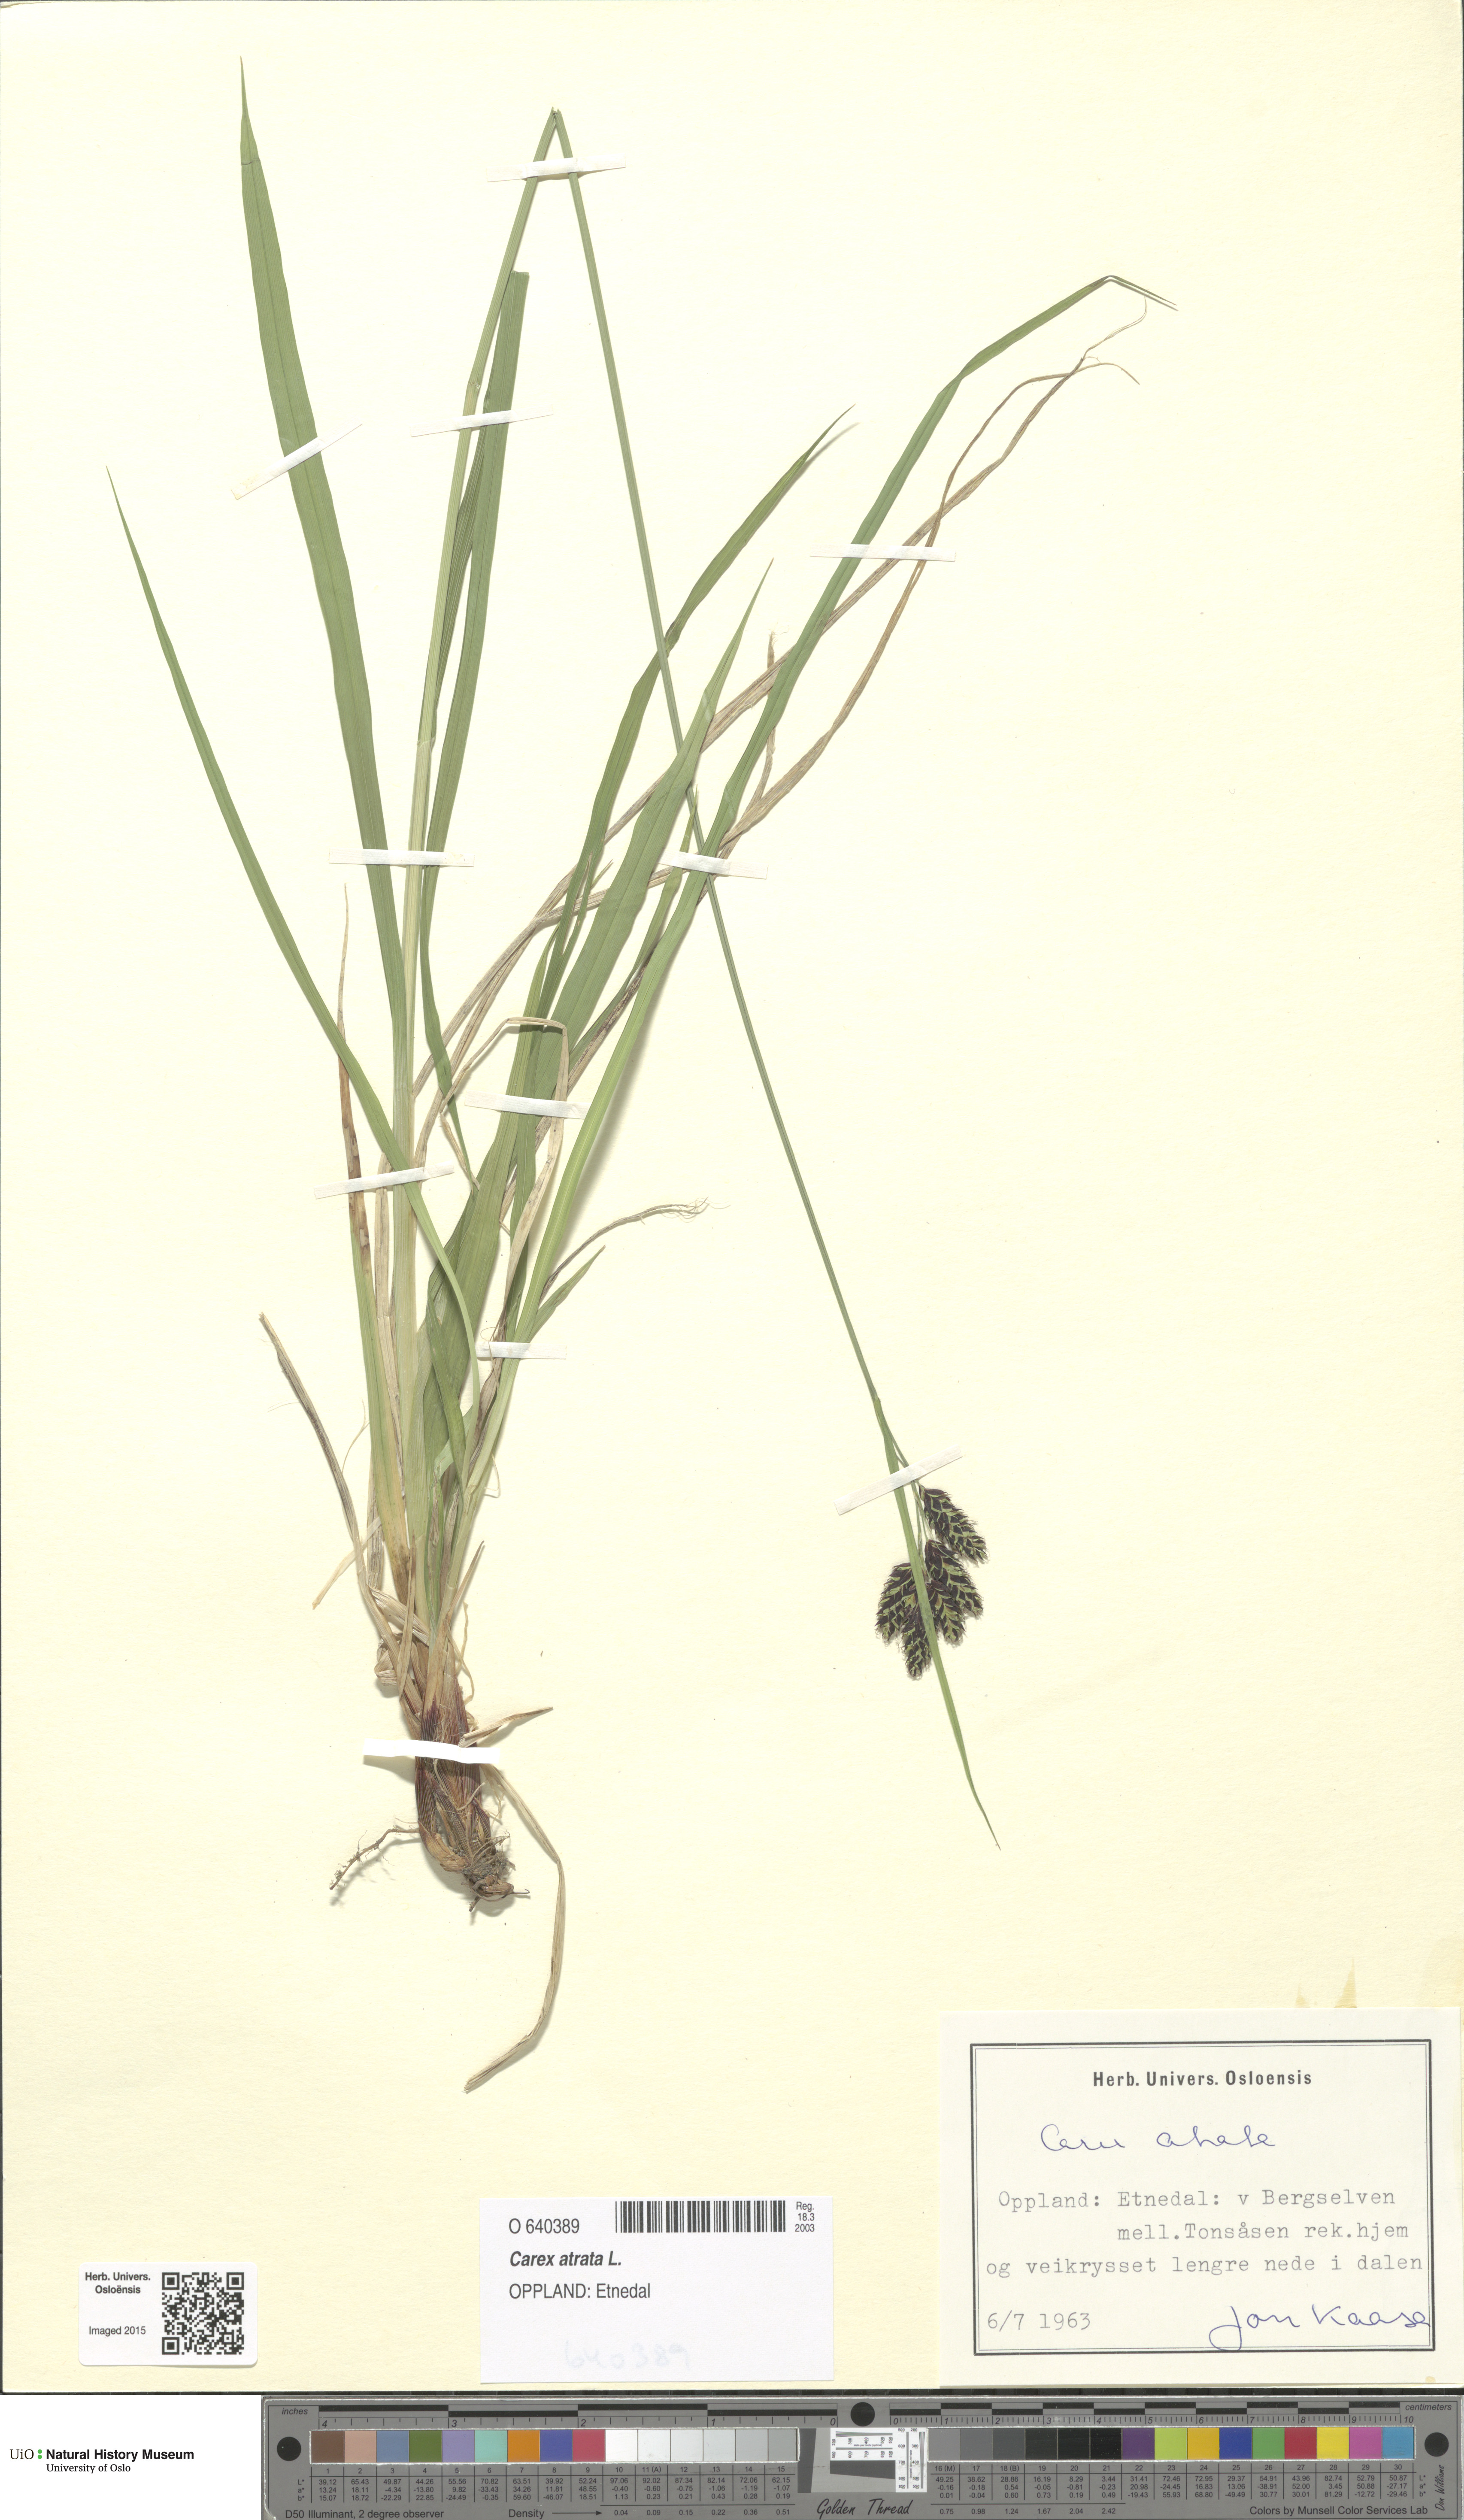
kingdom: Plantae
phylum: Tracheophyta
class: Liliopsida
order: Poales
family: Cyperaceae
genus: Carex
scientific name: Carex atrata
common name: Black alpine sedge
